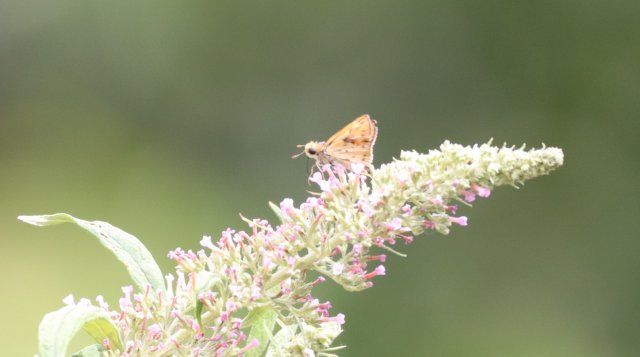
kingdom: Animalia
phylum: Arthropoda
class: Insecta
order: Lepidoptera
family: Hesperiidae
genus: Hylephila
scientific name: Hylephila phyleus
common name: Fiery Skipper
